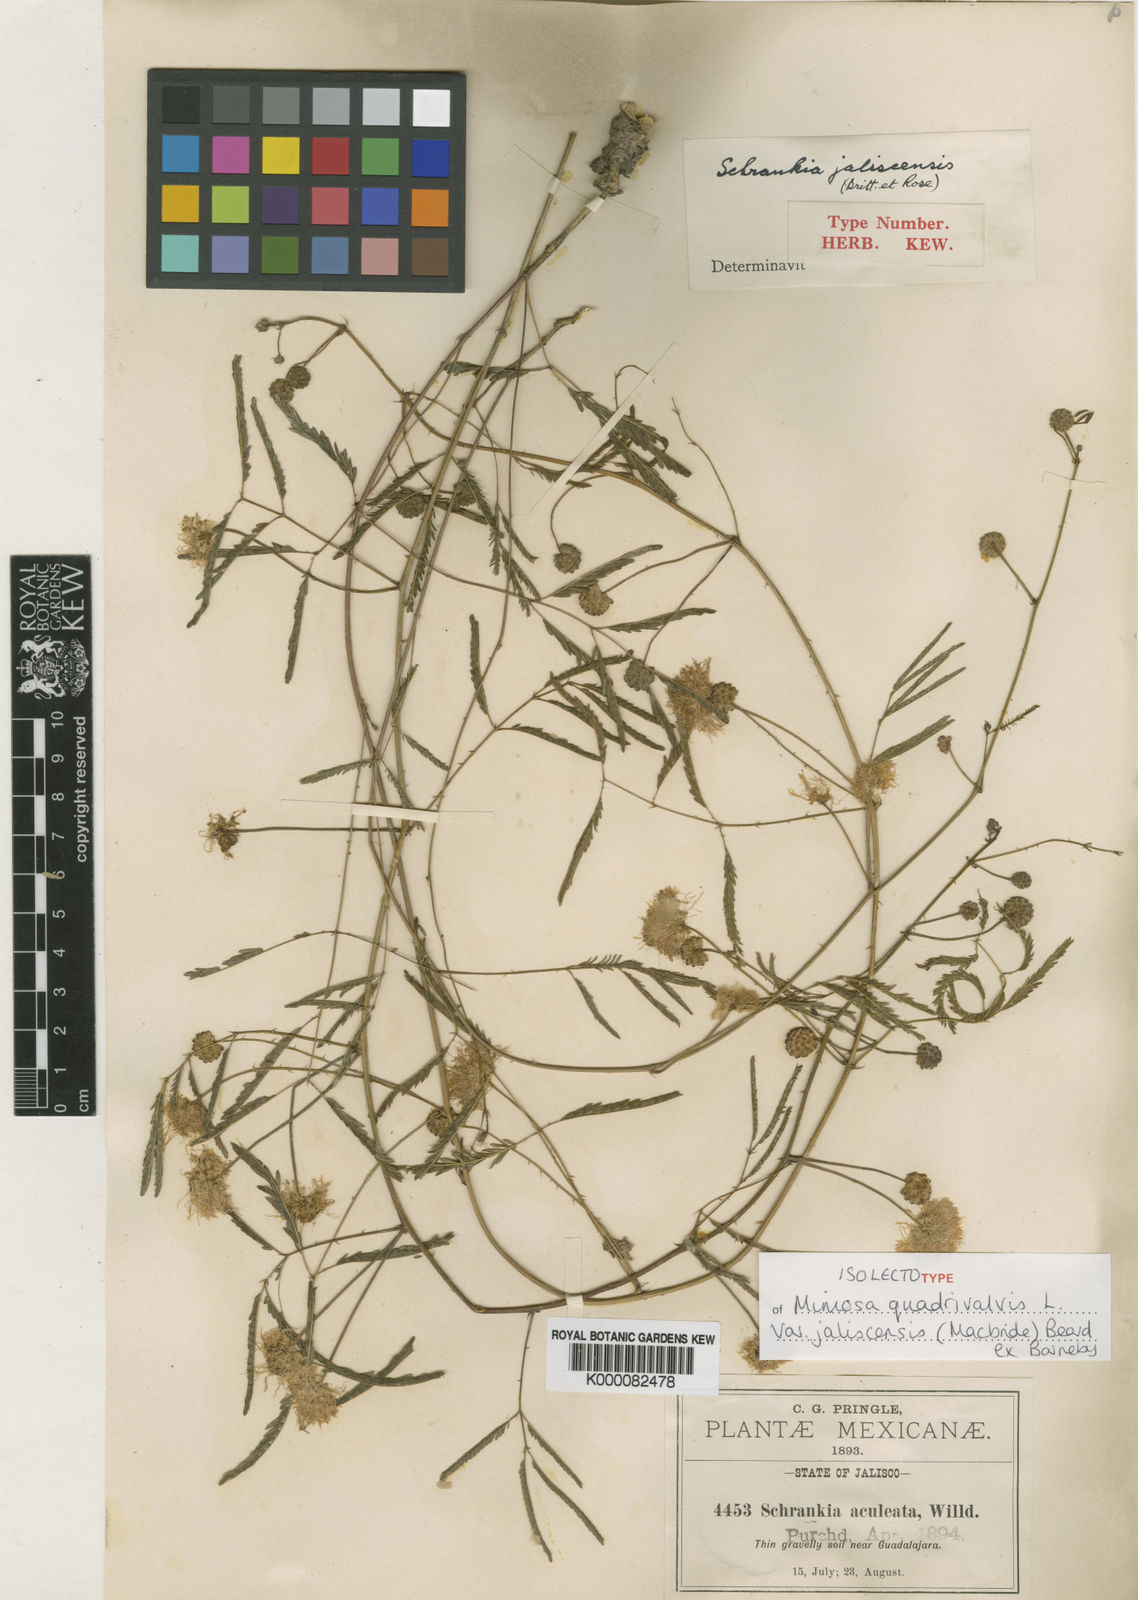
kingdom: Plantae
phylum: Tracheophyta
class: Magnoliopsida
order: Fabales
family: Fabaceae
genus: Mimosa
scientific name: Mimosa quadrivalvis
